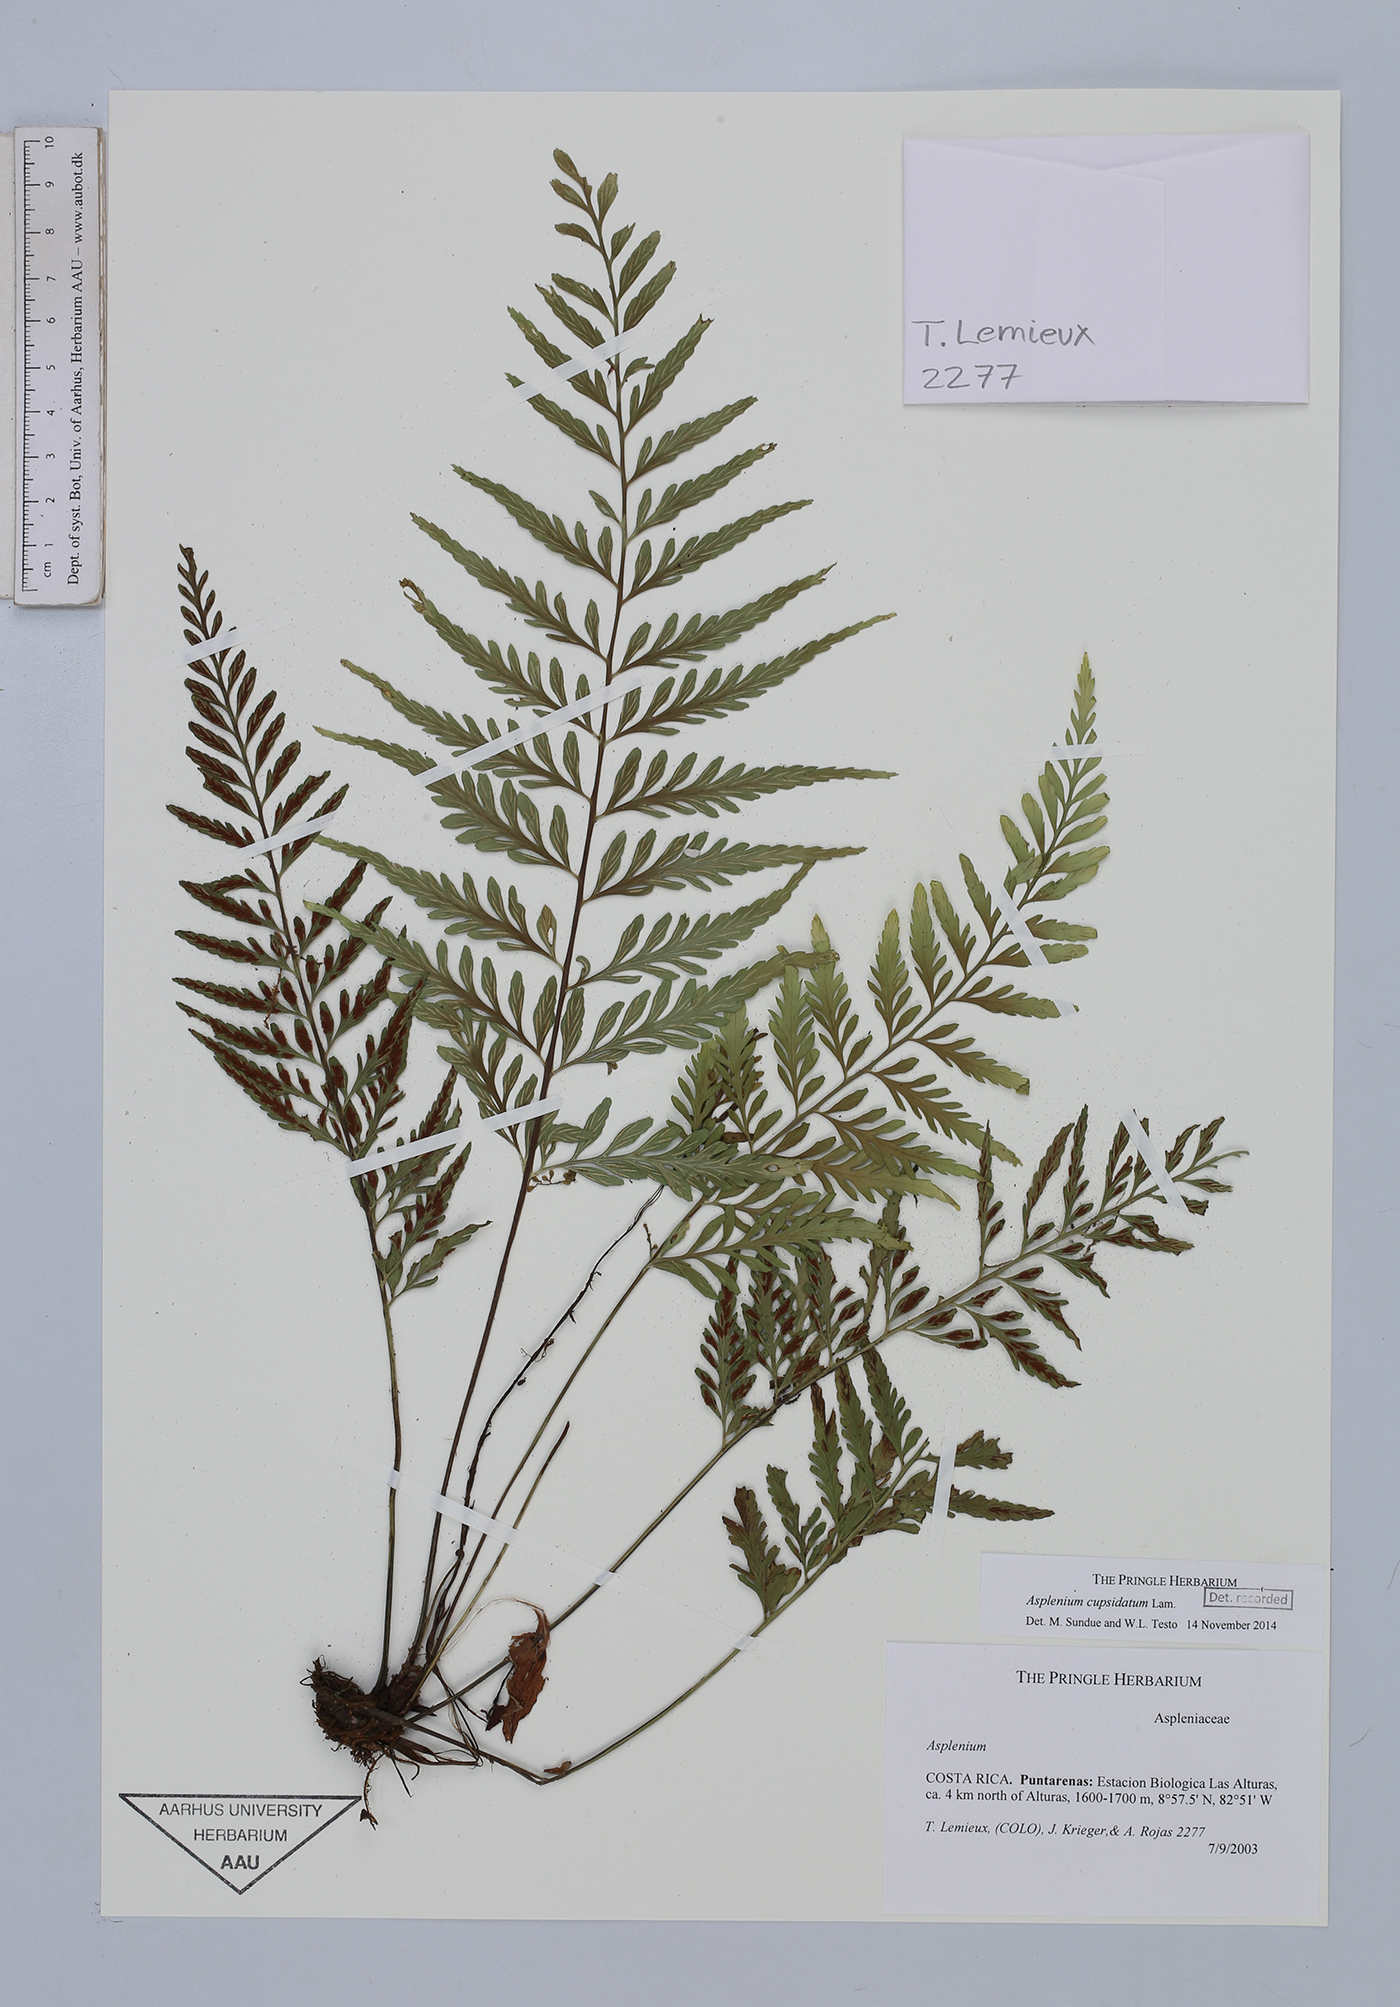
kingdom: Plantae
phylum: Tracheophyta
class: Polypodiopsida
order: Polypodiales
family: Aspleniaceae
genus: Asplenium
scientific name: Asplenium cuspidatum
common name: Eared spleenwort
